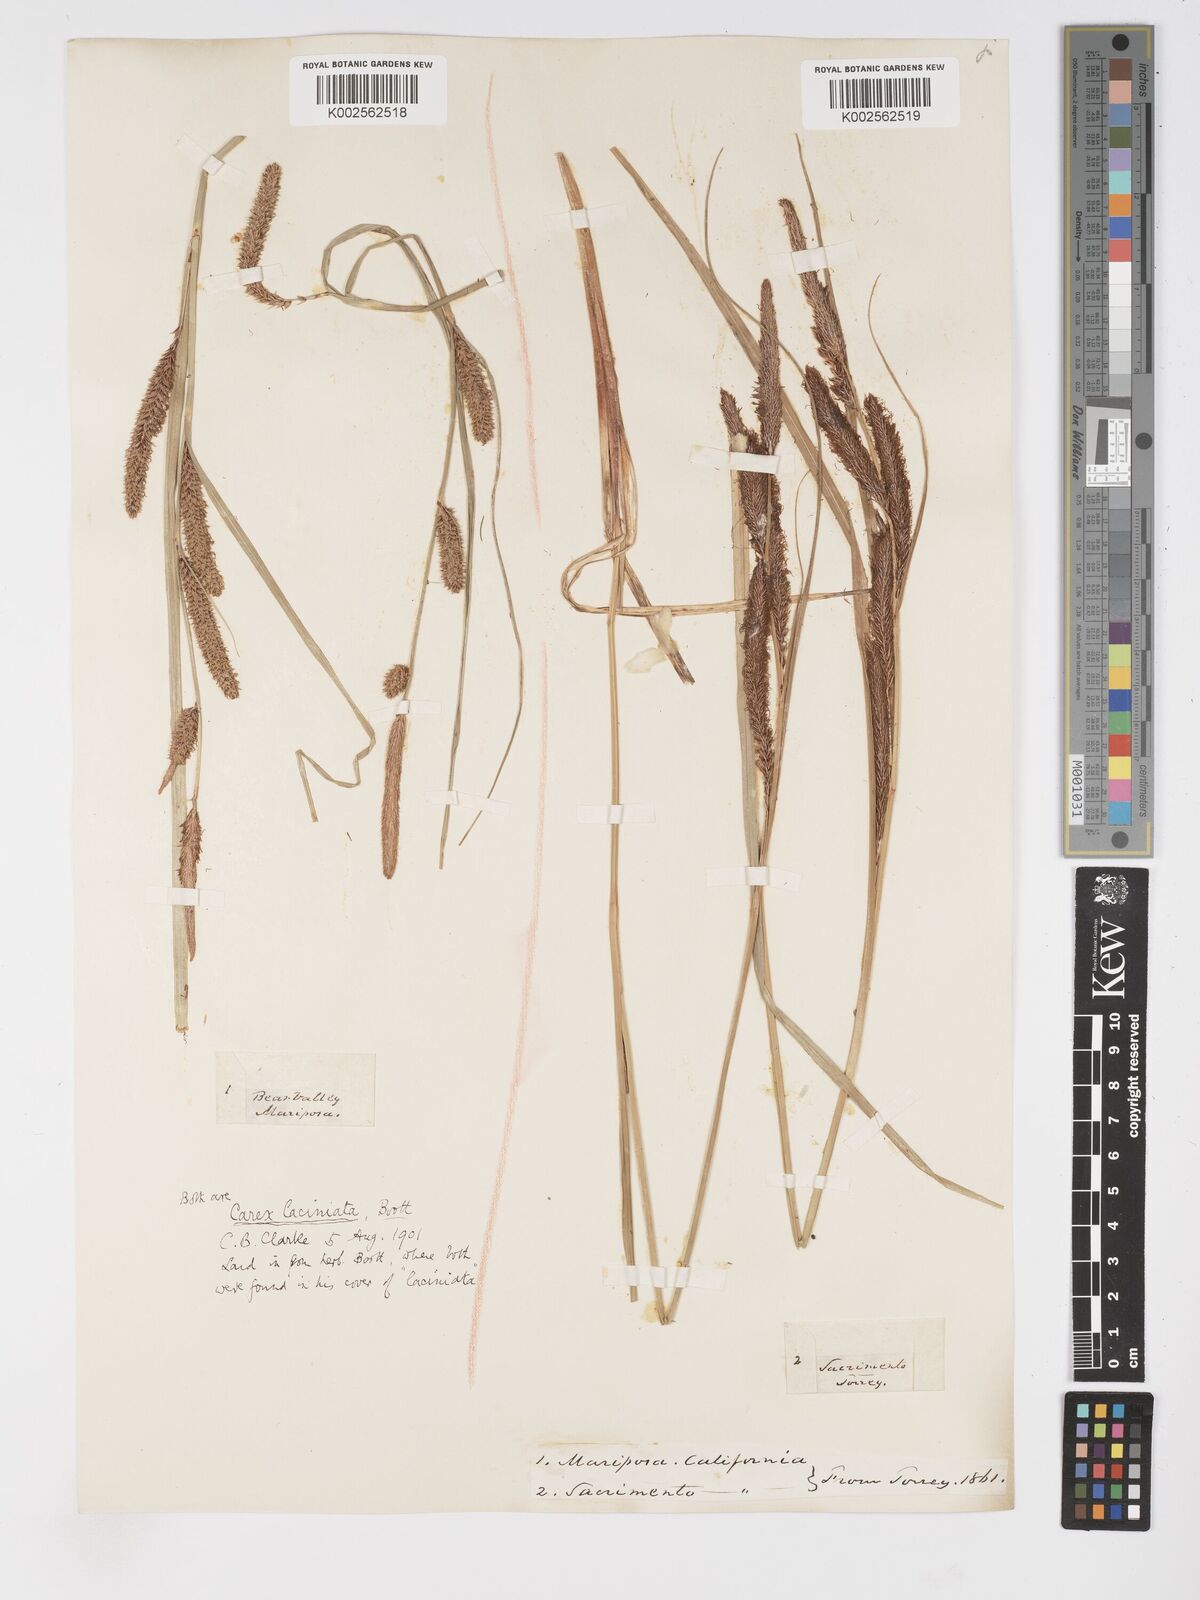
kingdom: Plantae
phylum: Tracheophyta
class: Liliopsida
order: Poales
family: Cyperaceae
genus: Carex
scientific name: Carex barbarae
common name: Santa barbara sedge
